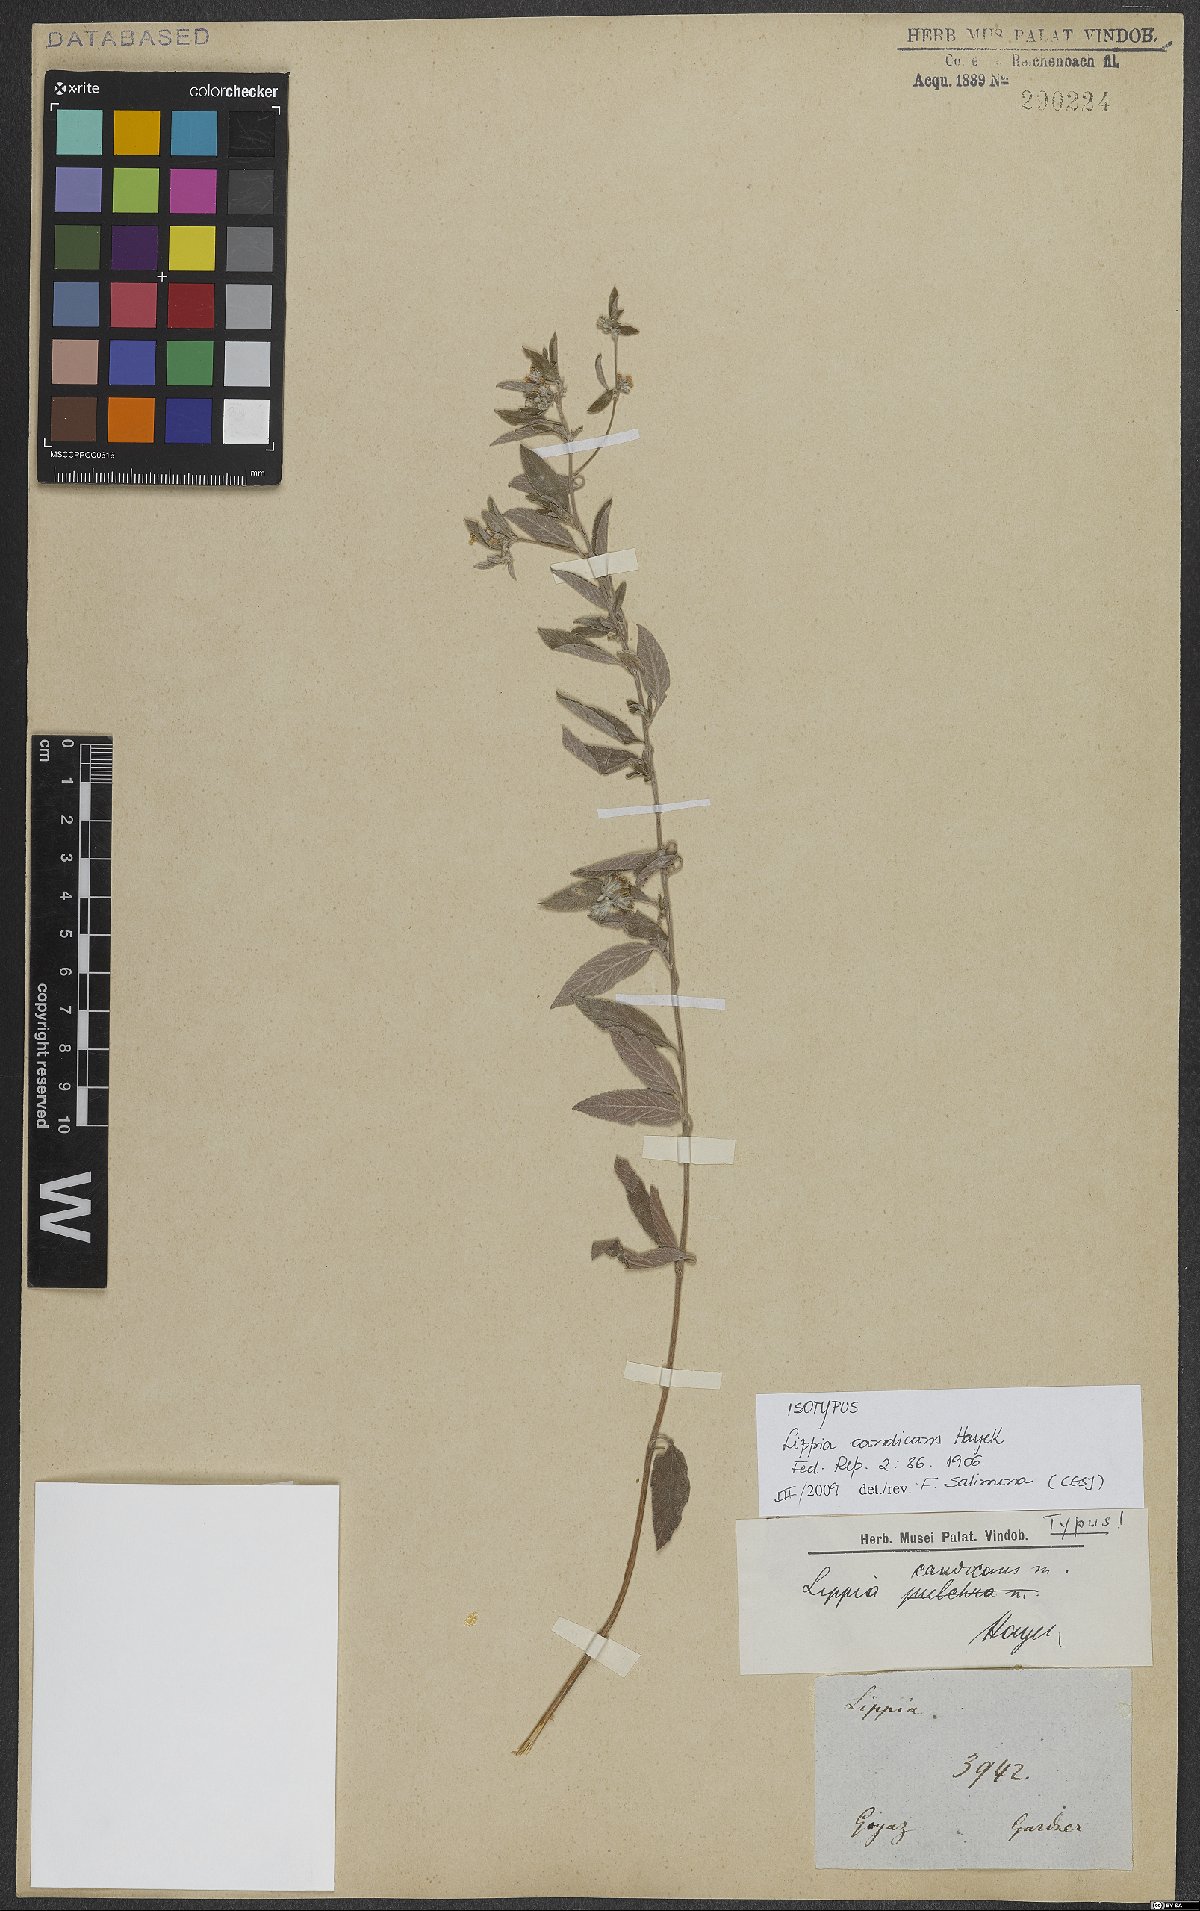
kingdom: Plantae
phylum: Tracheophyta
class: Magnoliopsida
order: Lamiales
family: Verbenaceae
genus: Lippia
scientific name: Lippia origanoides
